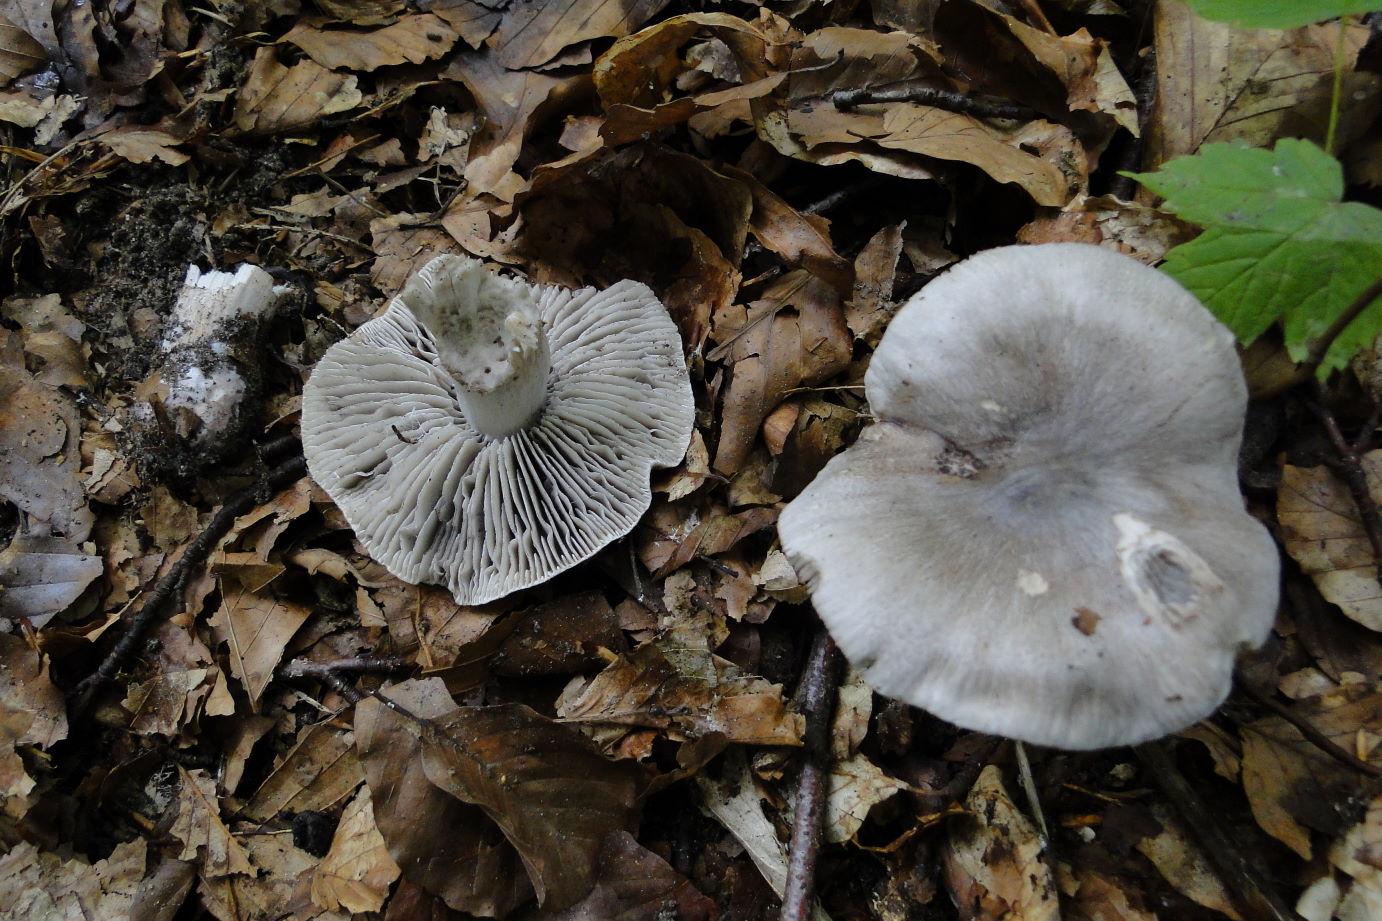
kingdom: Fungi
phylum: Basidiomycota
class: Agaricomycetes
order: Agaricales
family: Tricholomataceae
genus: Tricholoma
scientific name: Tricholoma sciodes
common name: stribet ridderhat
